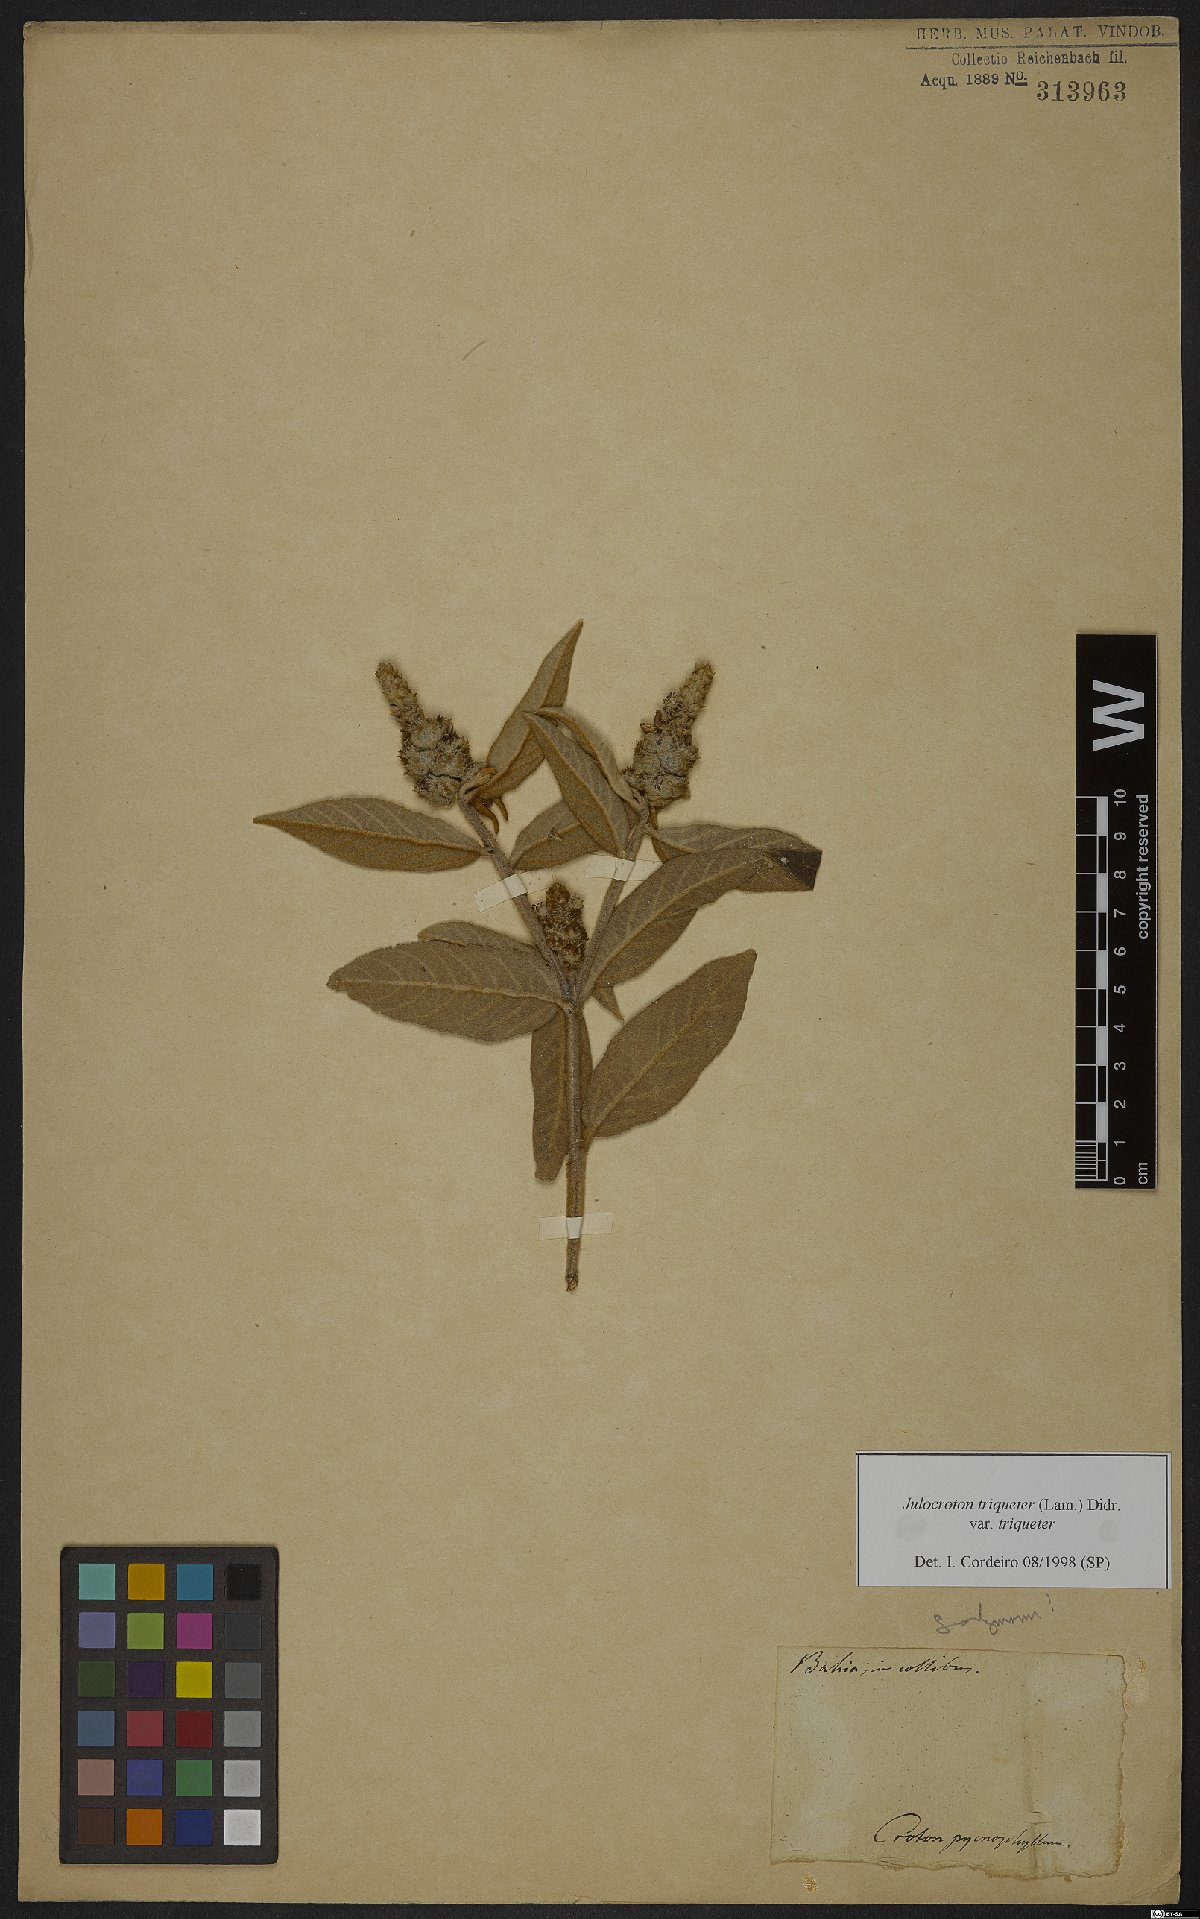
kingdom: Plantae
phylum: Tracheophyta
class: Magnoliopsida
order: Malpighiales
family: Euphorbiaceae
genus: Croton
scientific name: Croton triqueter
